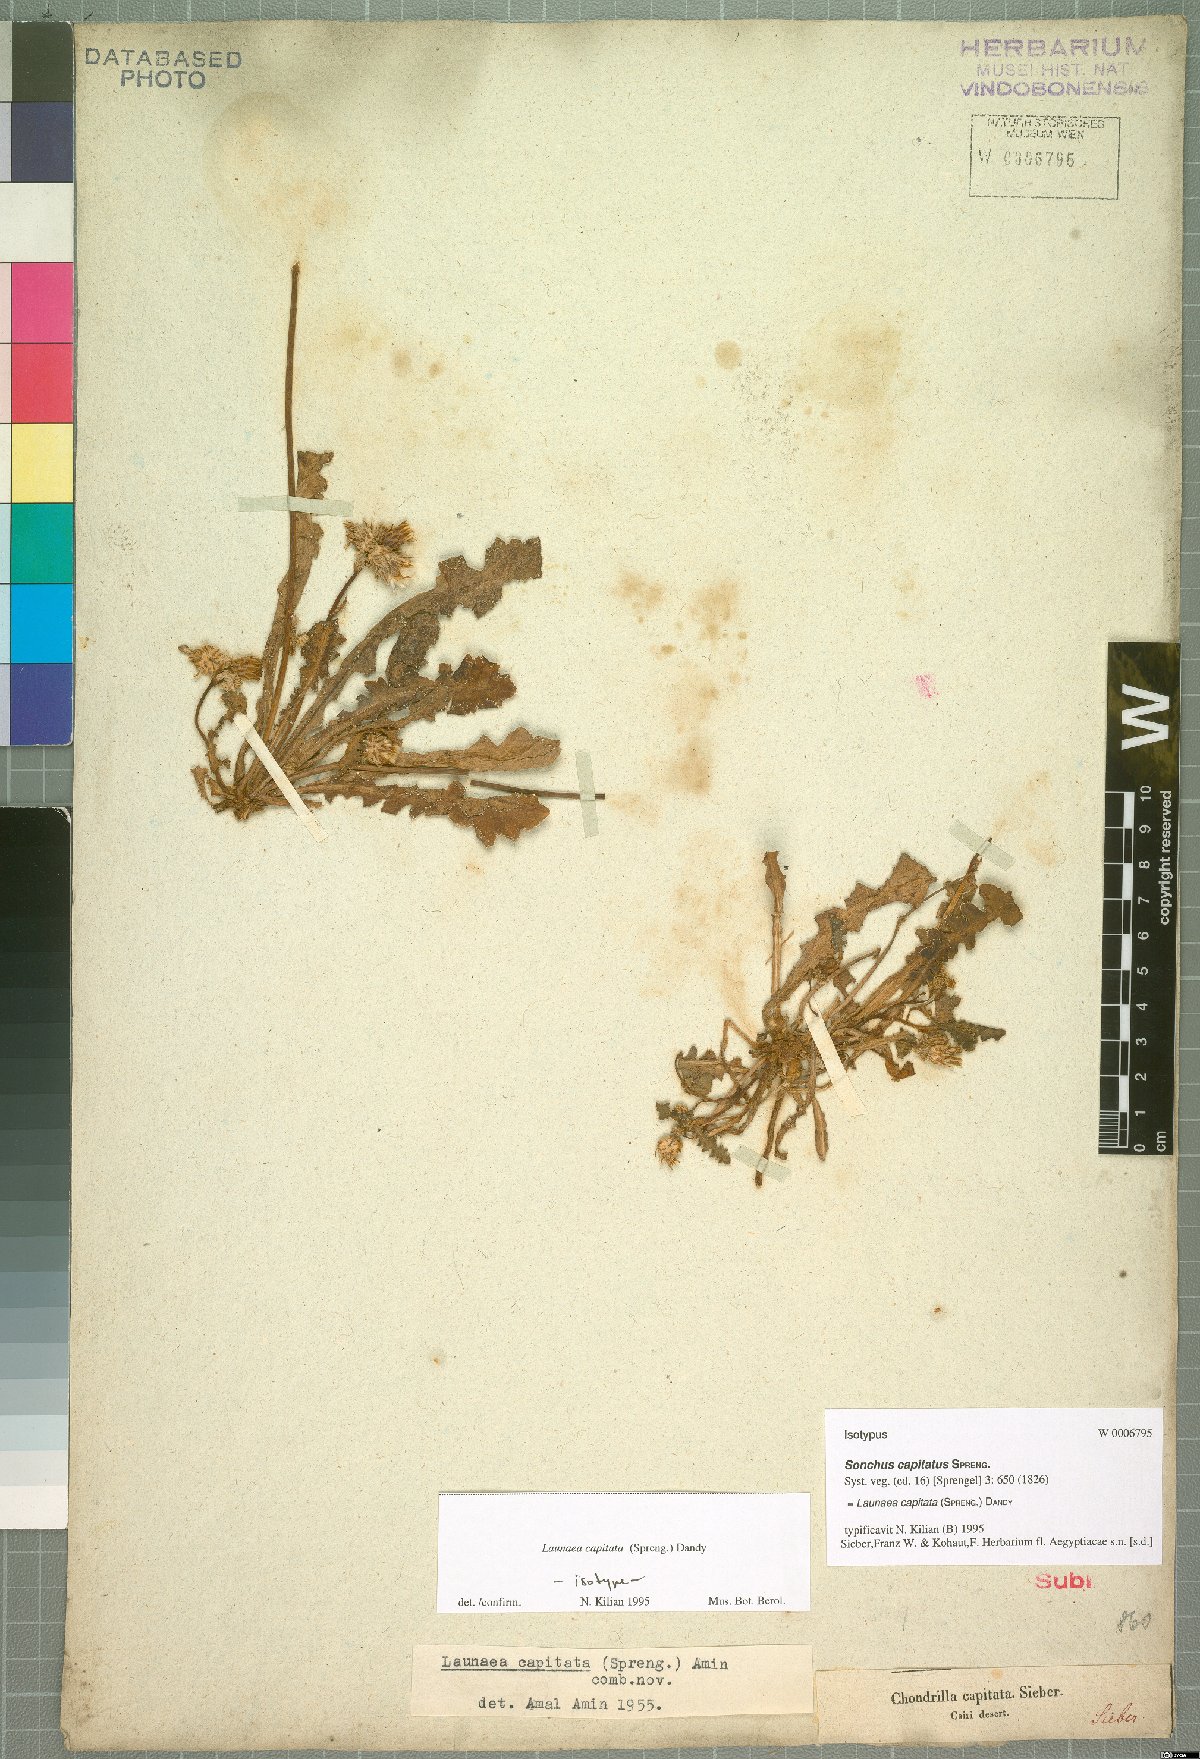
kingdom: Plantae
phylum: Tracheophyta
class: Magnoliopsida
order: Asterales
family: Asteraceae
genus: Launaea
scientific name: Launaea capitata
